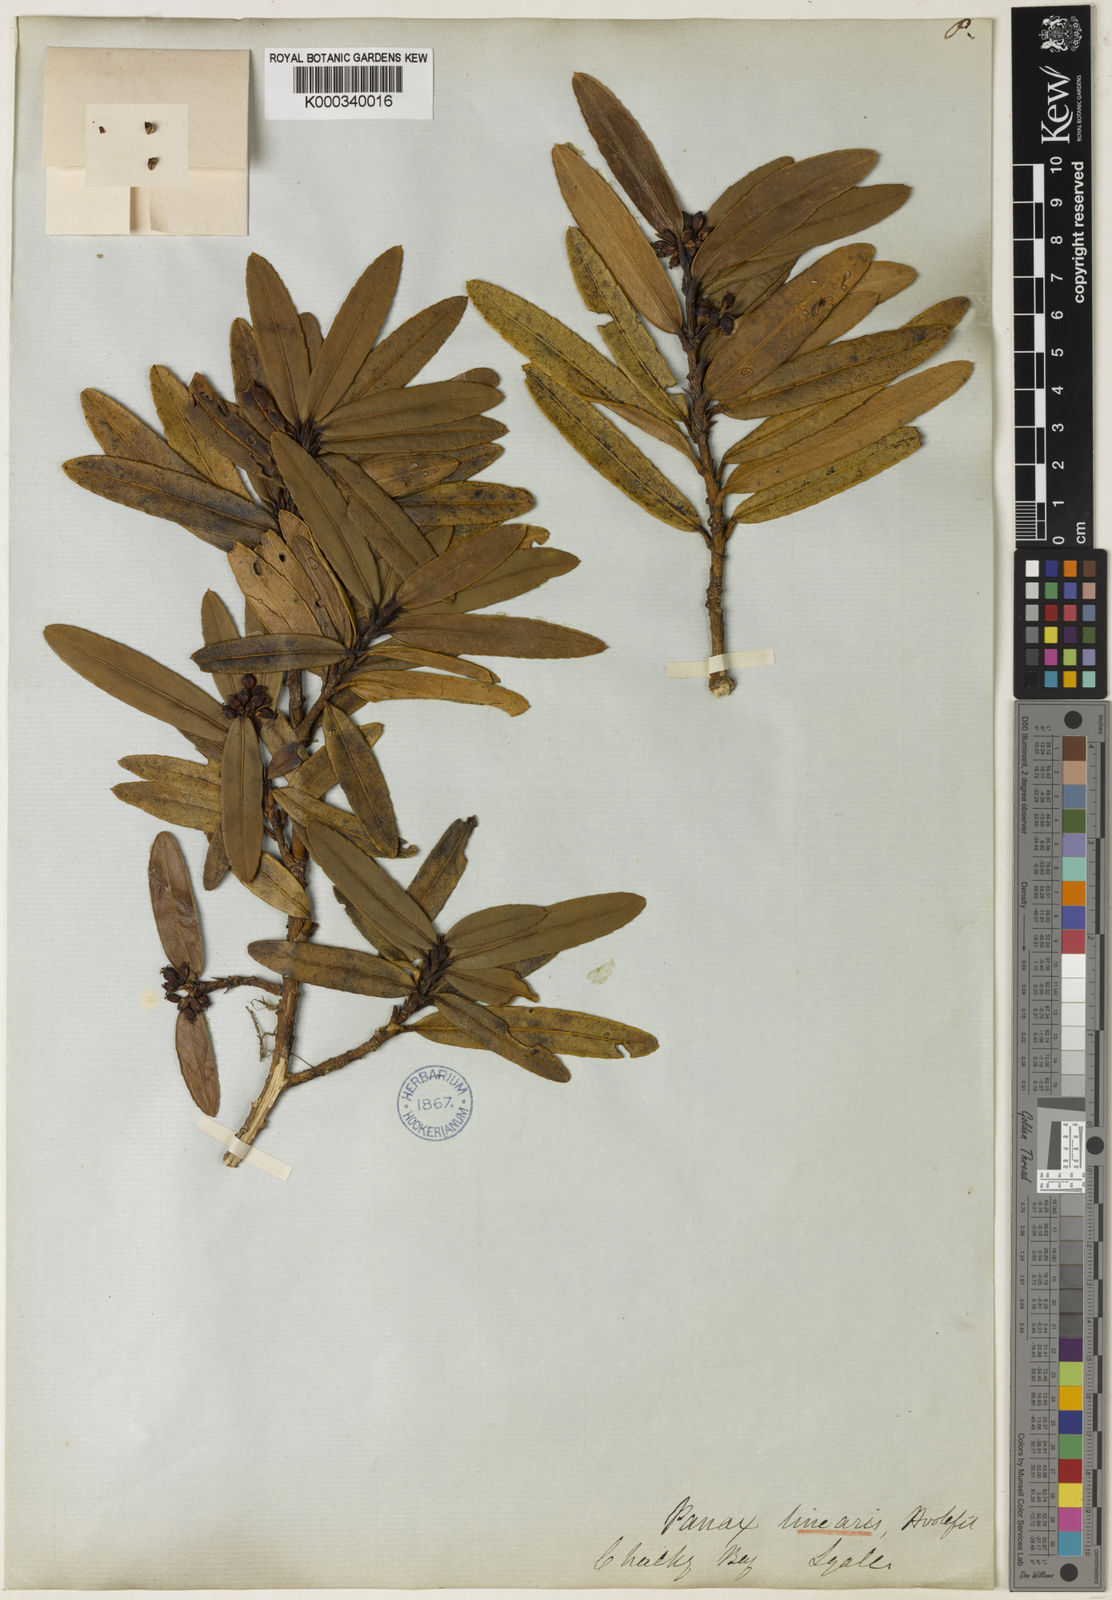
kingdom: Plantae
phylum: Tracheophyta
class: Magnoliopsida
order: Apiales
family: Araliaceae
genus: Pseudopanax
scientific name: Pseudopanax linearis
